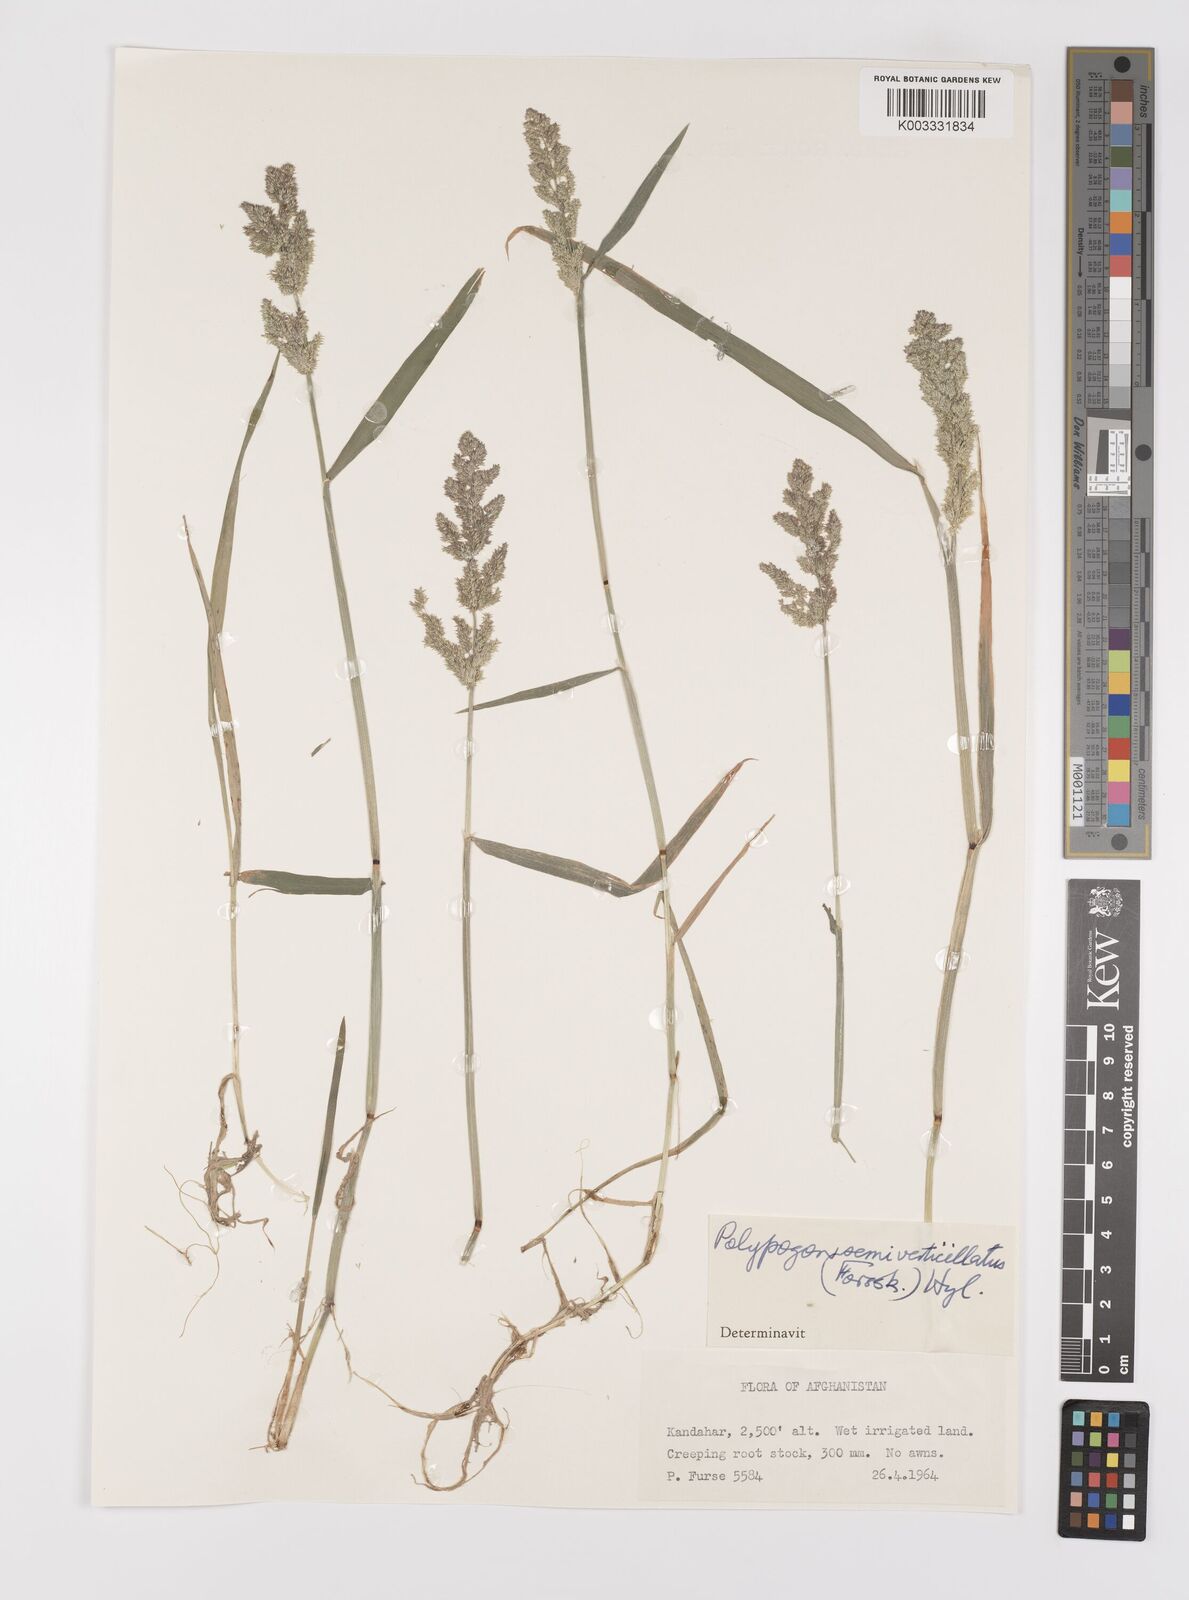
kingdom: Plantae
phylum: Tracheophyta
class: Liliopsida
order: Poales
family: Poaceae
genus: Polypogon
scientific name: Polypogon viridis
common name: Water bent
